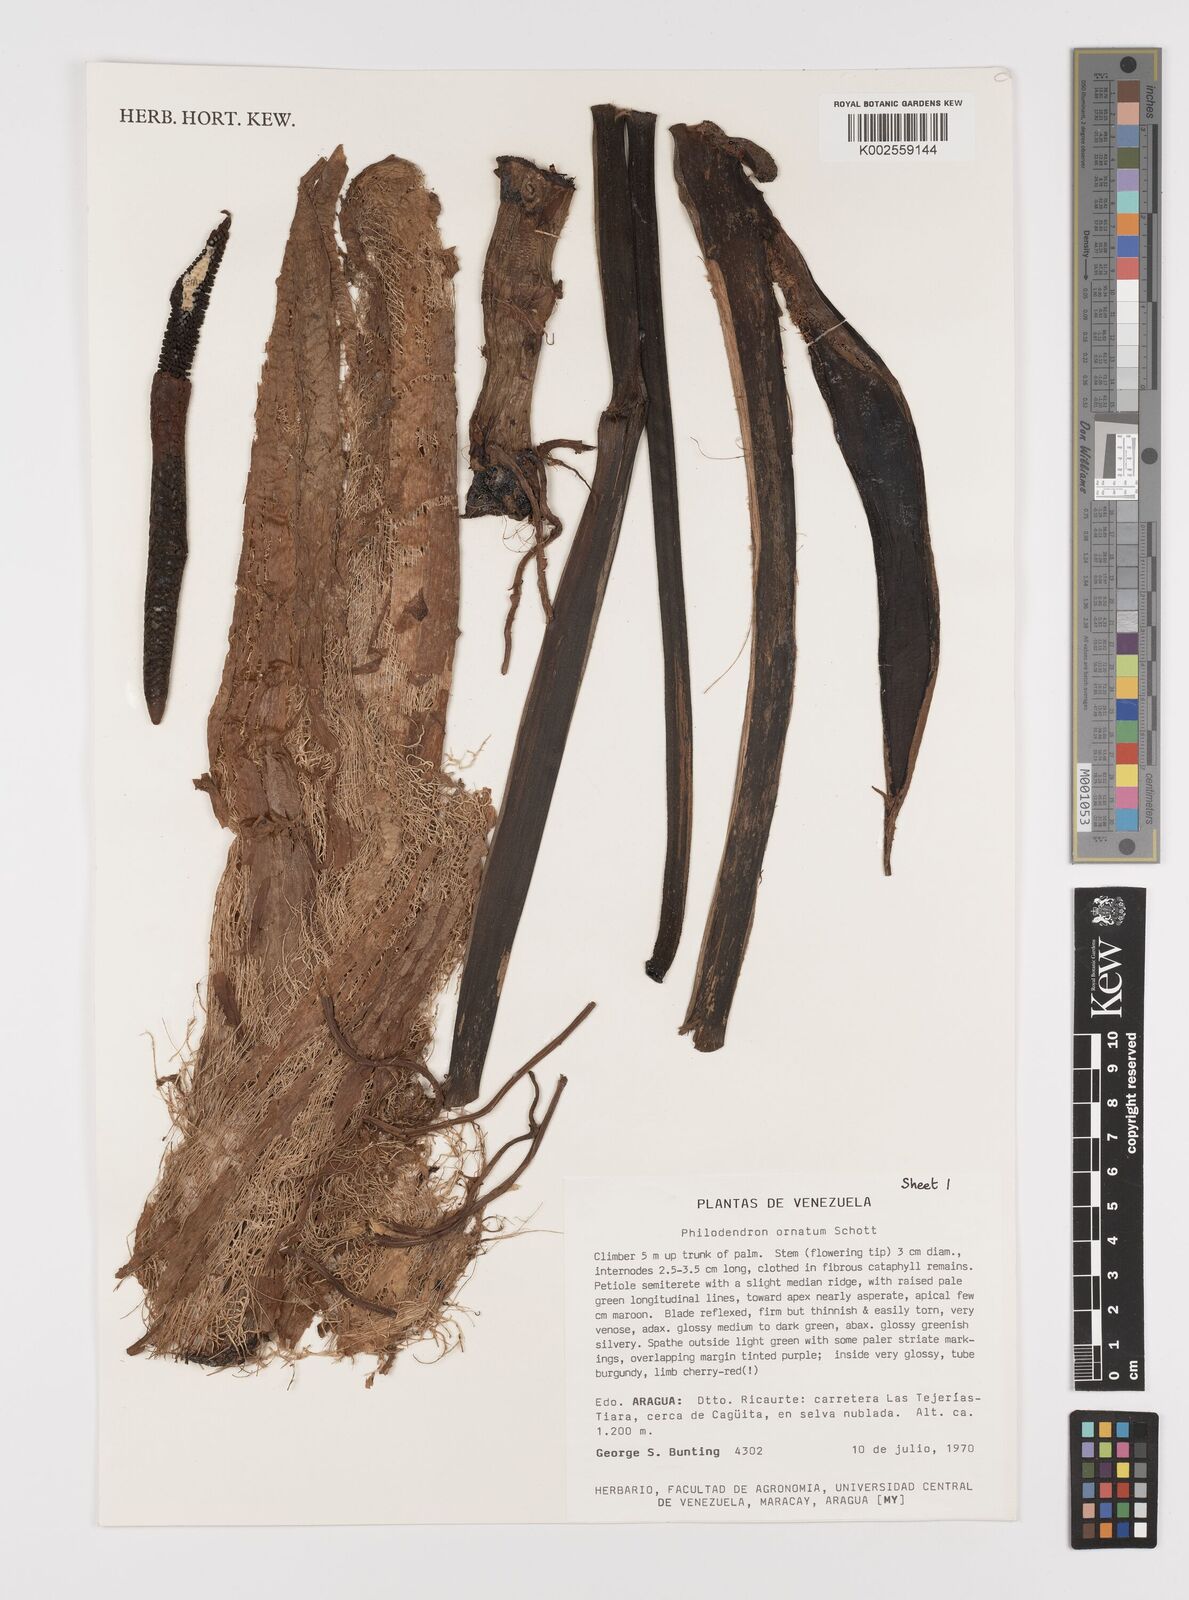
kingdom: Plantae
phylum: Tracheophyta
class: Liliopsida
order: Alismatales
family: Araceae
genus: Philodendron
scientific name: Philodendron ornatum
